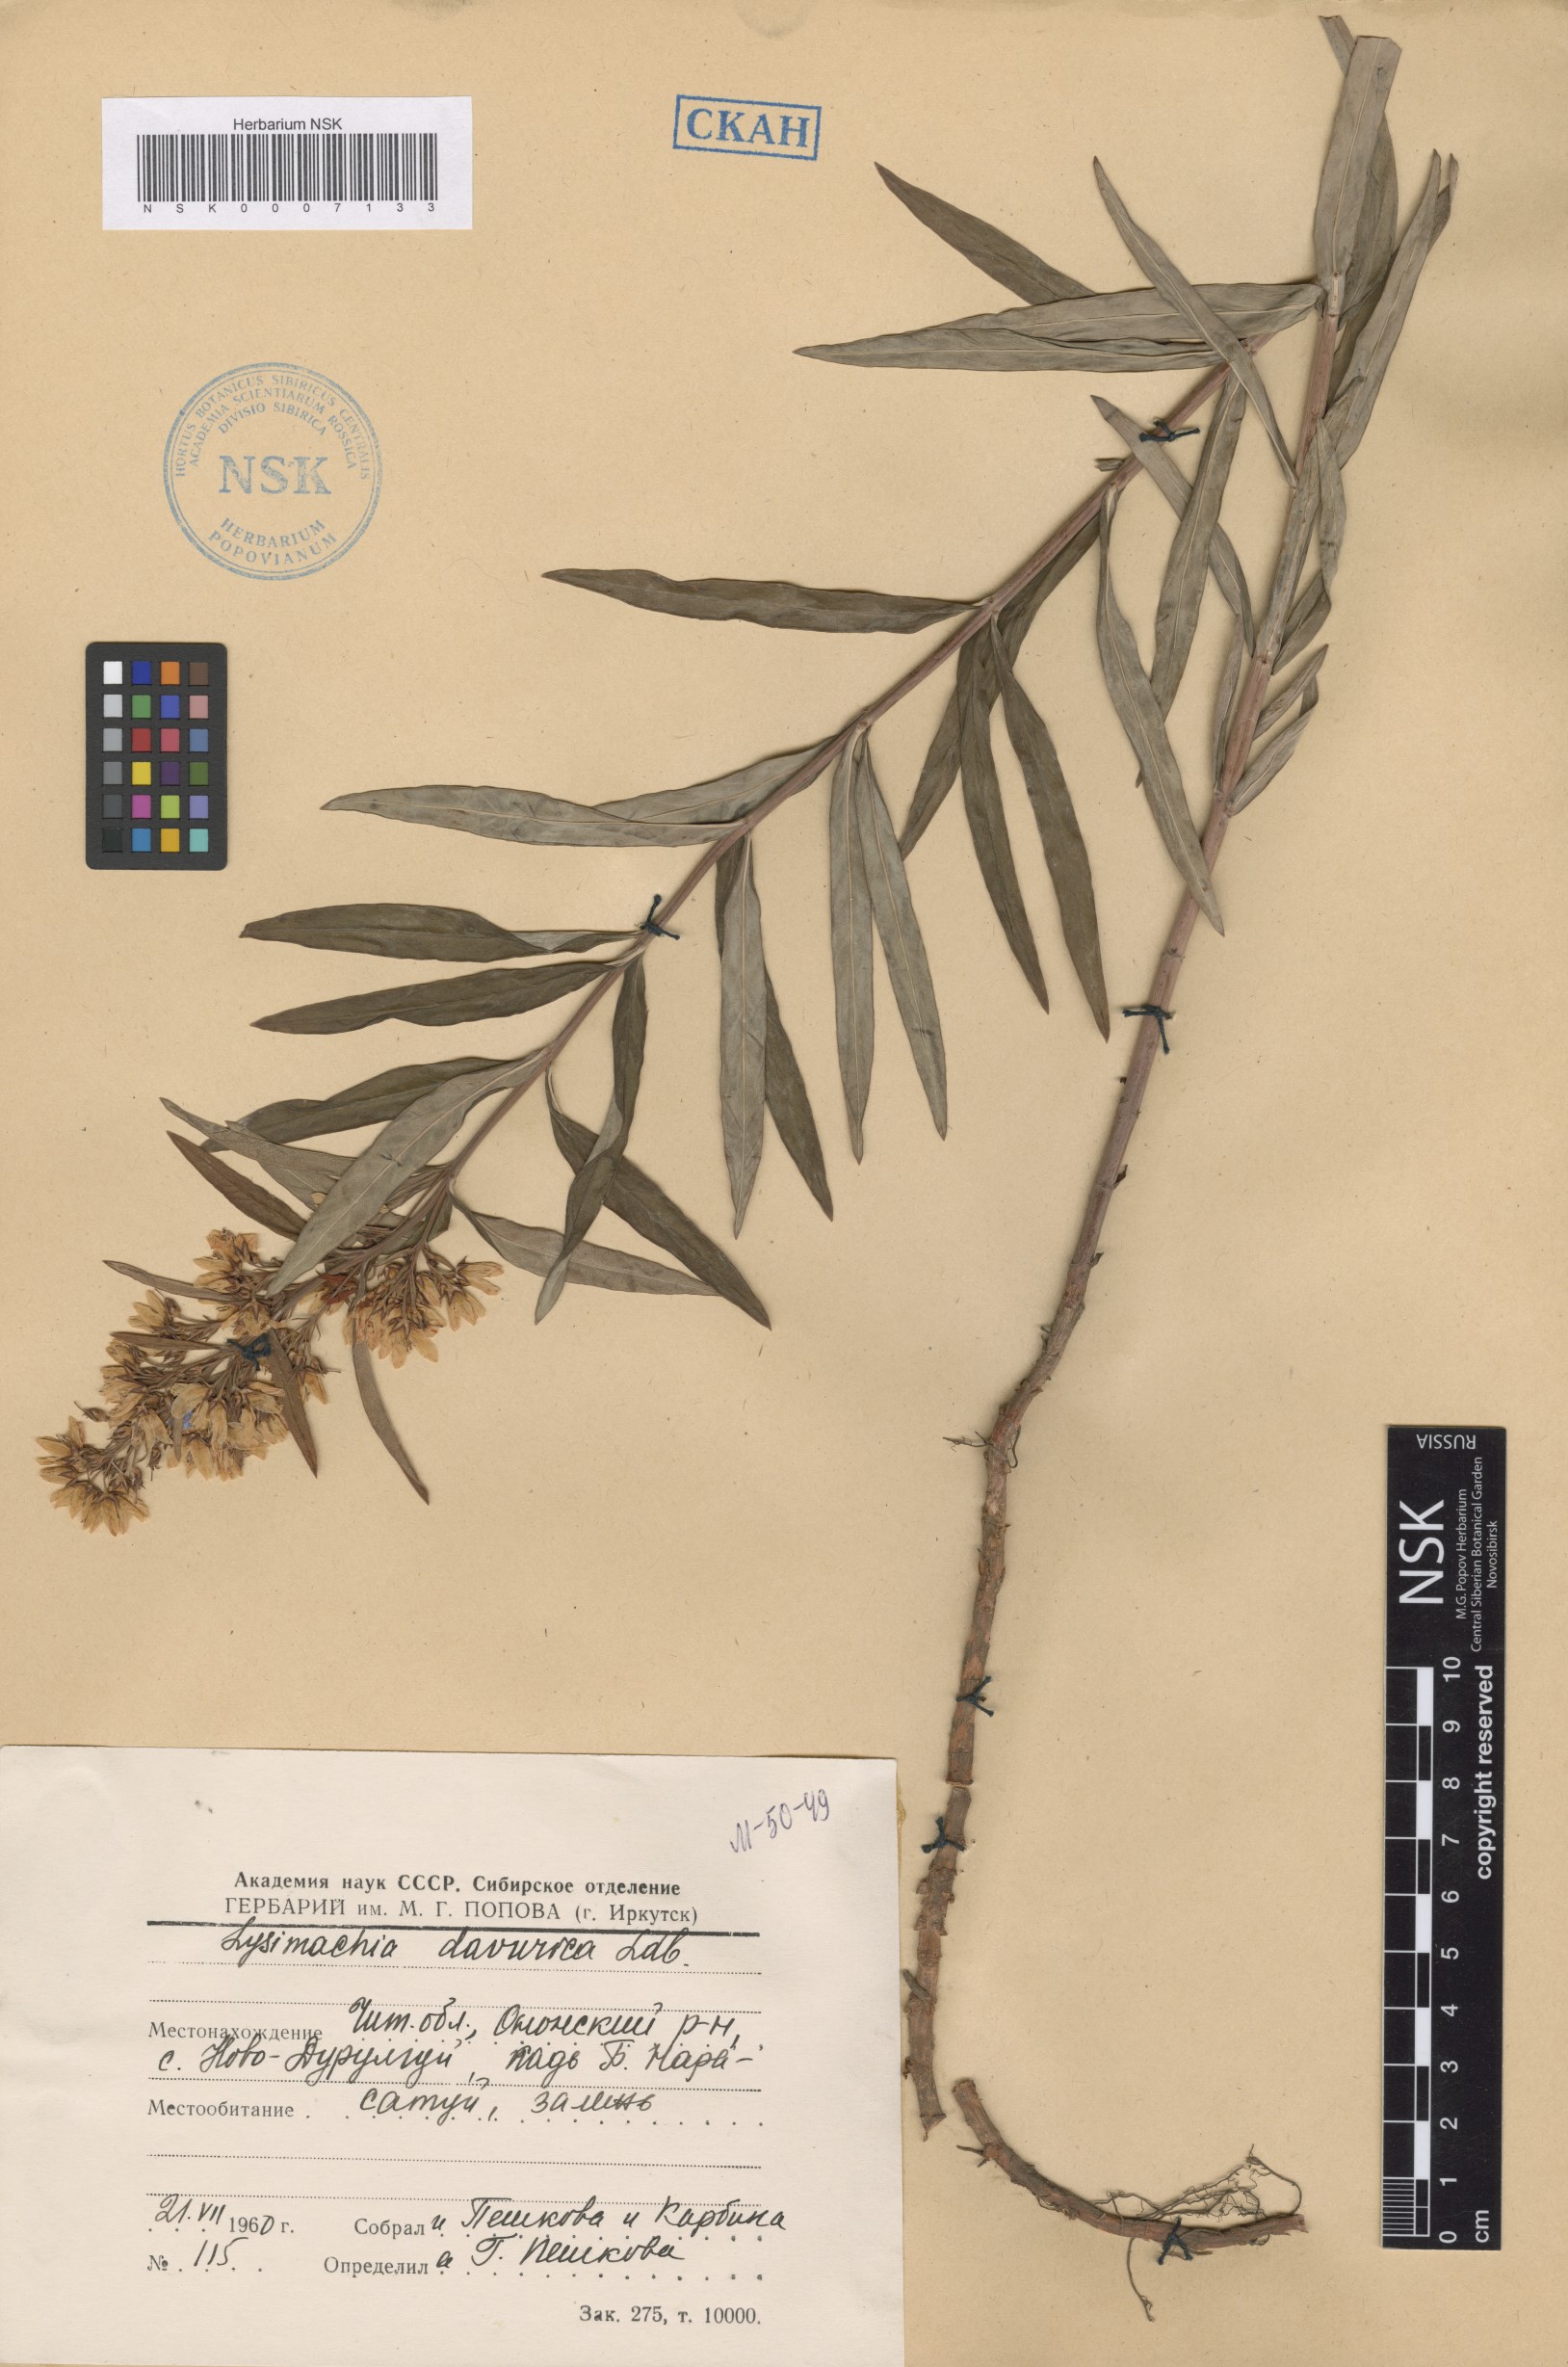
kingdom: Plantae
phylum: Tracheophyta
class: Magnoliopsida
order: Ericales
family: Primulaceae
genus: Lysimachia
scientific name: Lysimachia davurica
